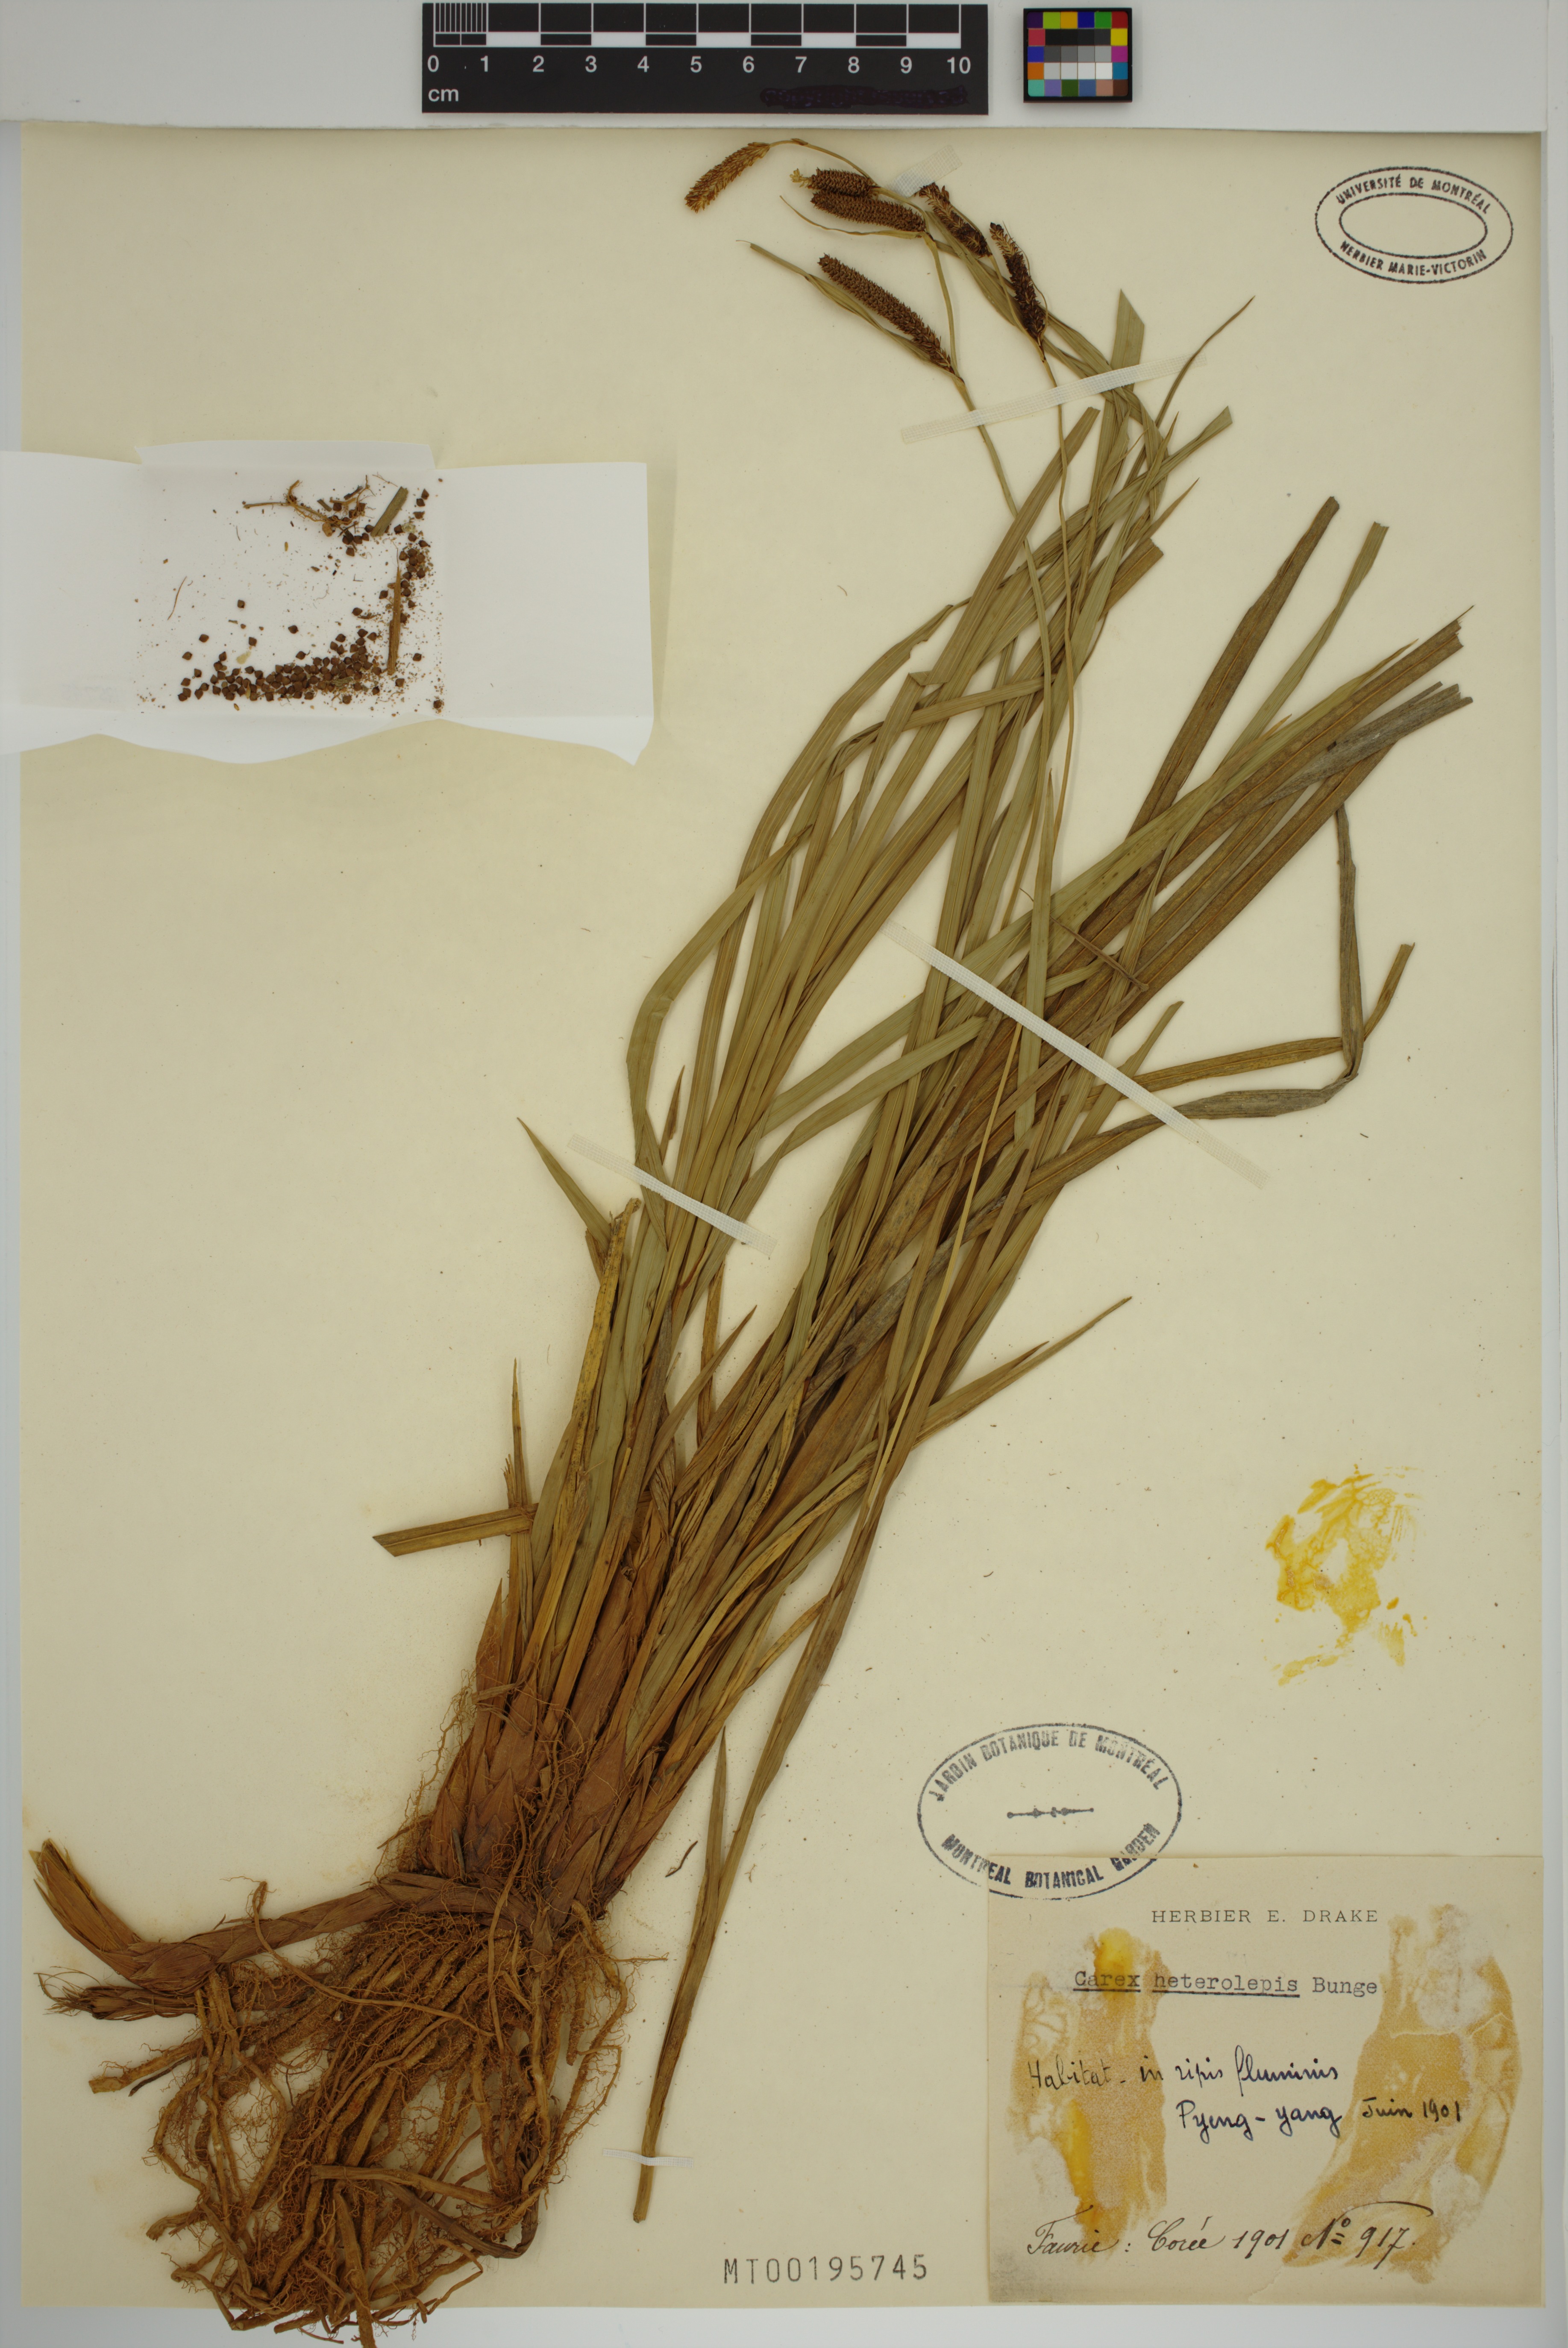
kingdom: Plantae
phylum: Tracheophyta
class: Liliopsida
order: Poales
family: Cyperaceae
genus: Carex
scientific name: Carex heterolepis
